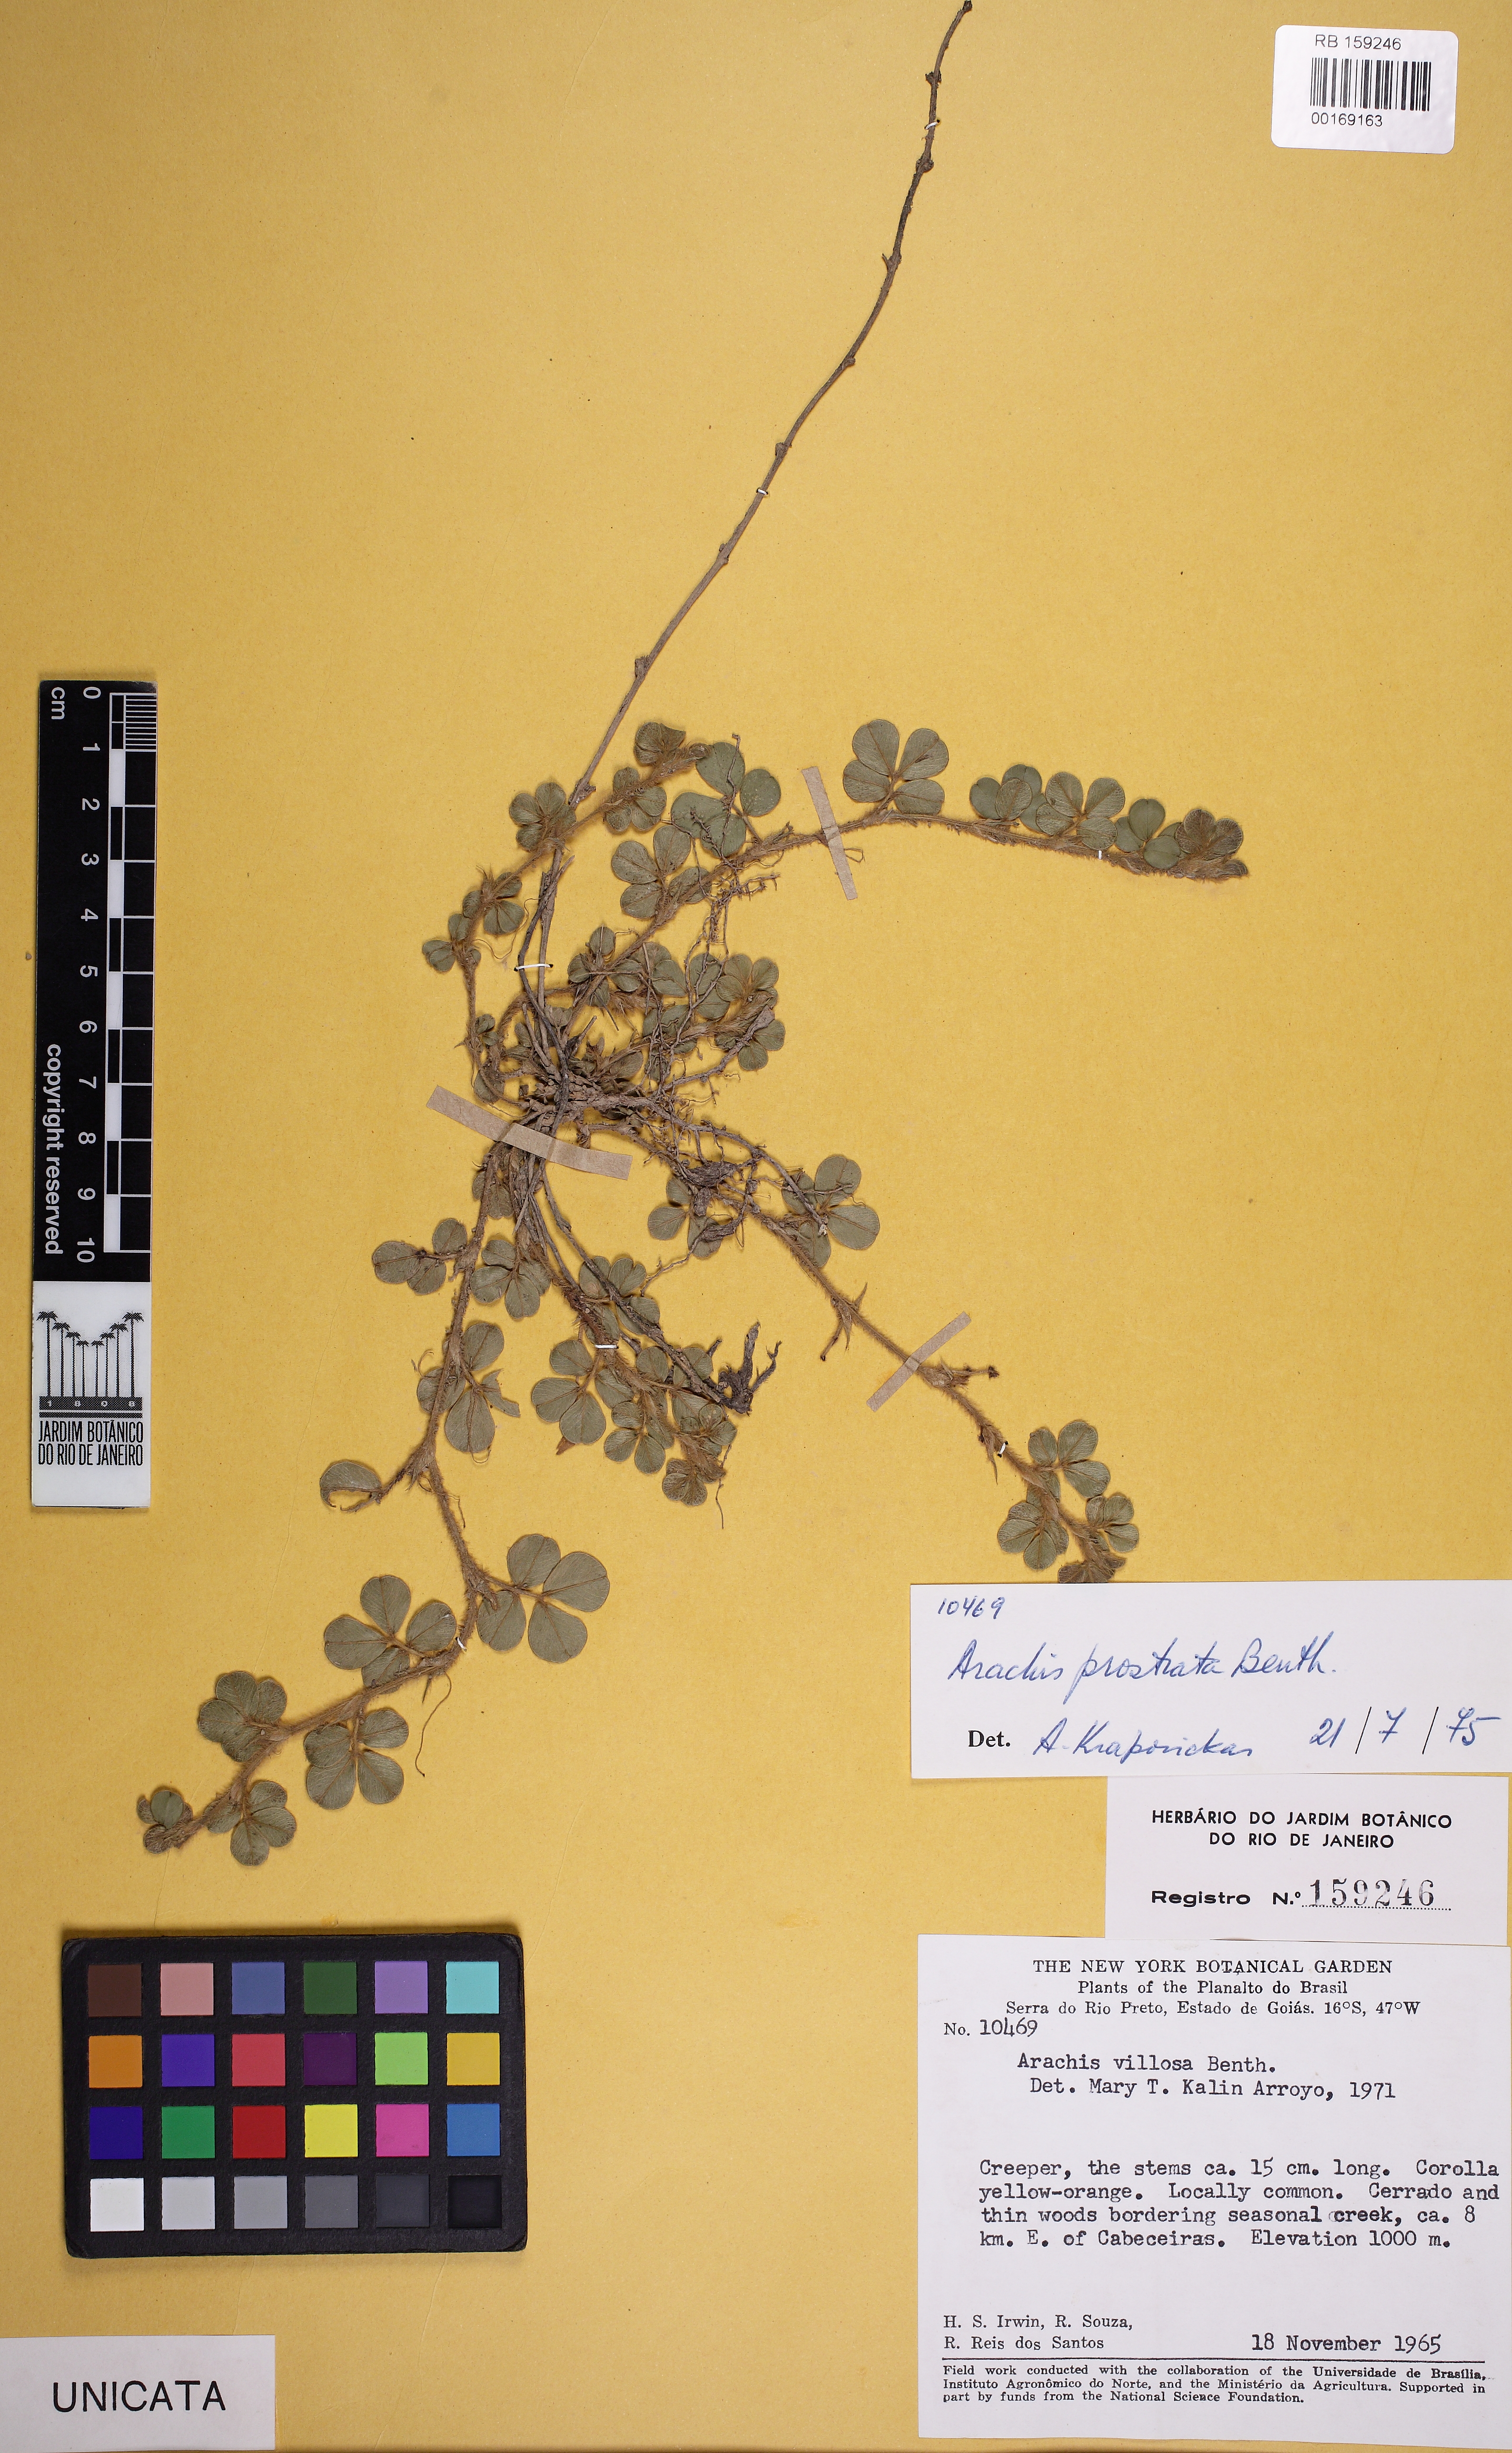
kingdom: Plantae
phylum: Tracheophyta
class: Magnoliopsida
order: Fabales
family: Fabaceae
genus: Arachis
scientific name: Arachis prostrata
